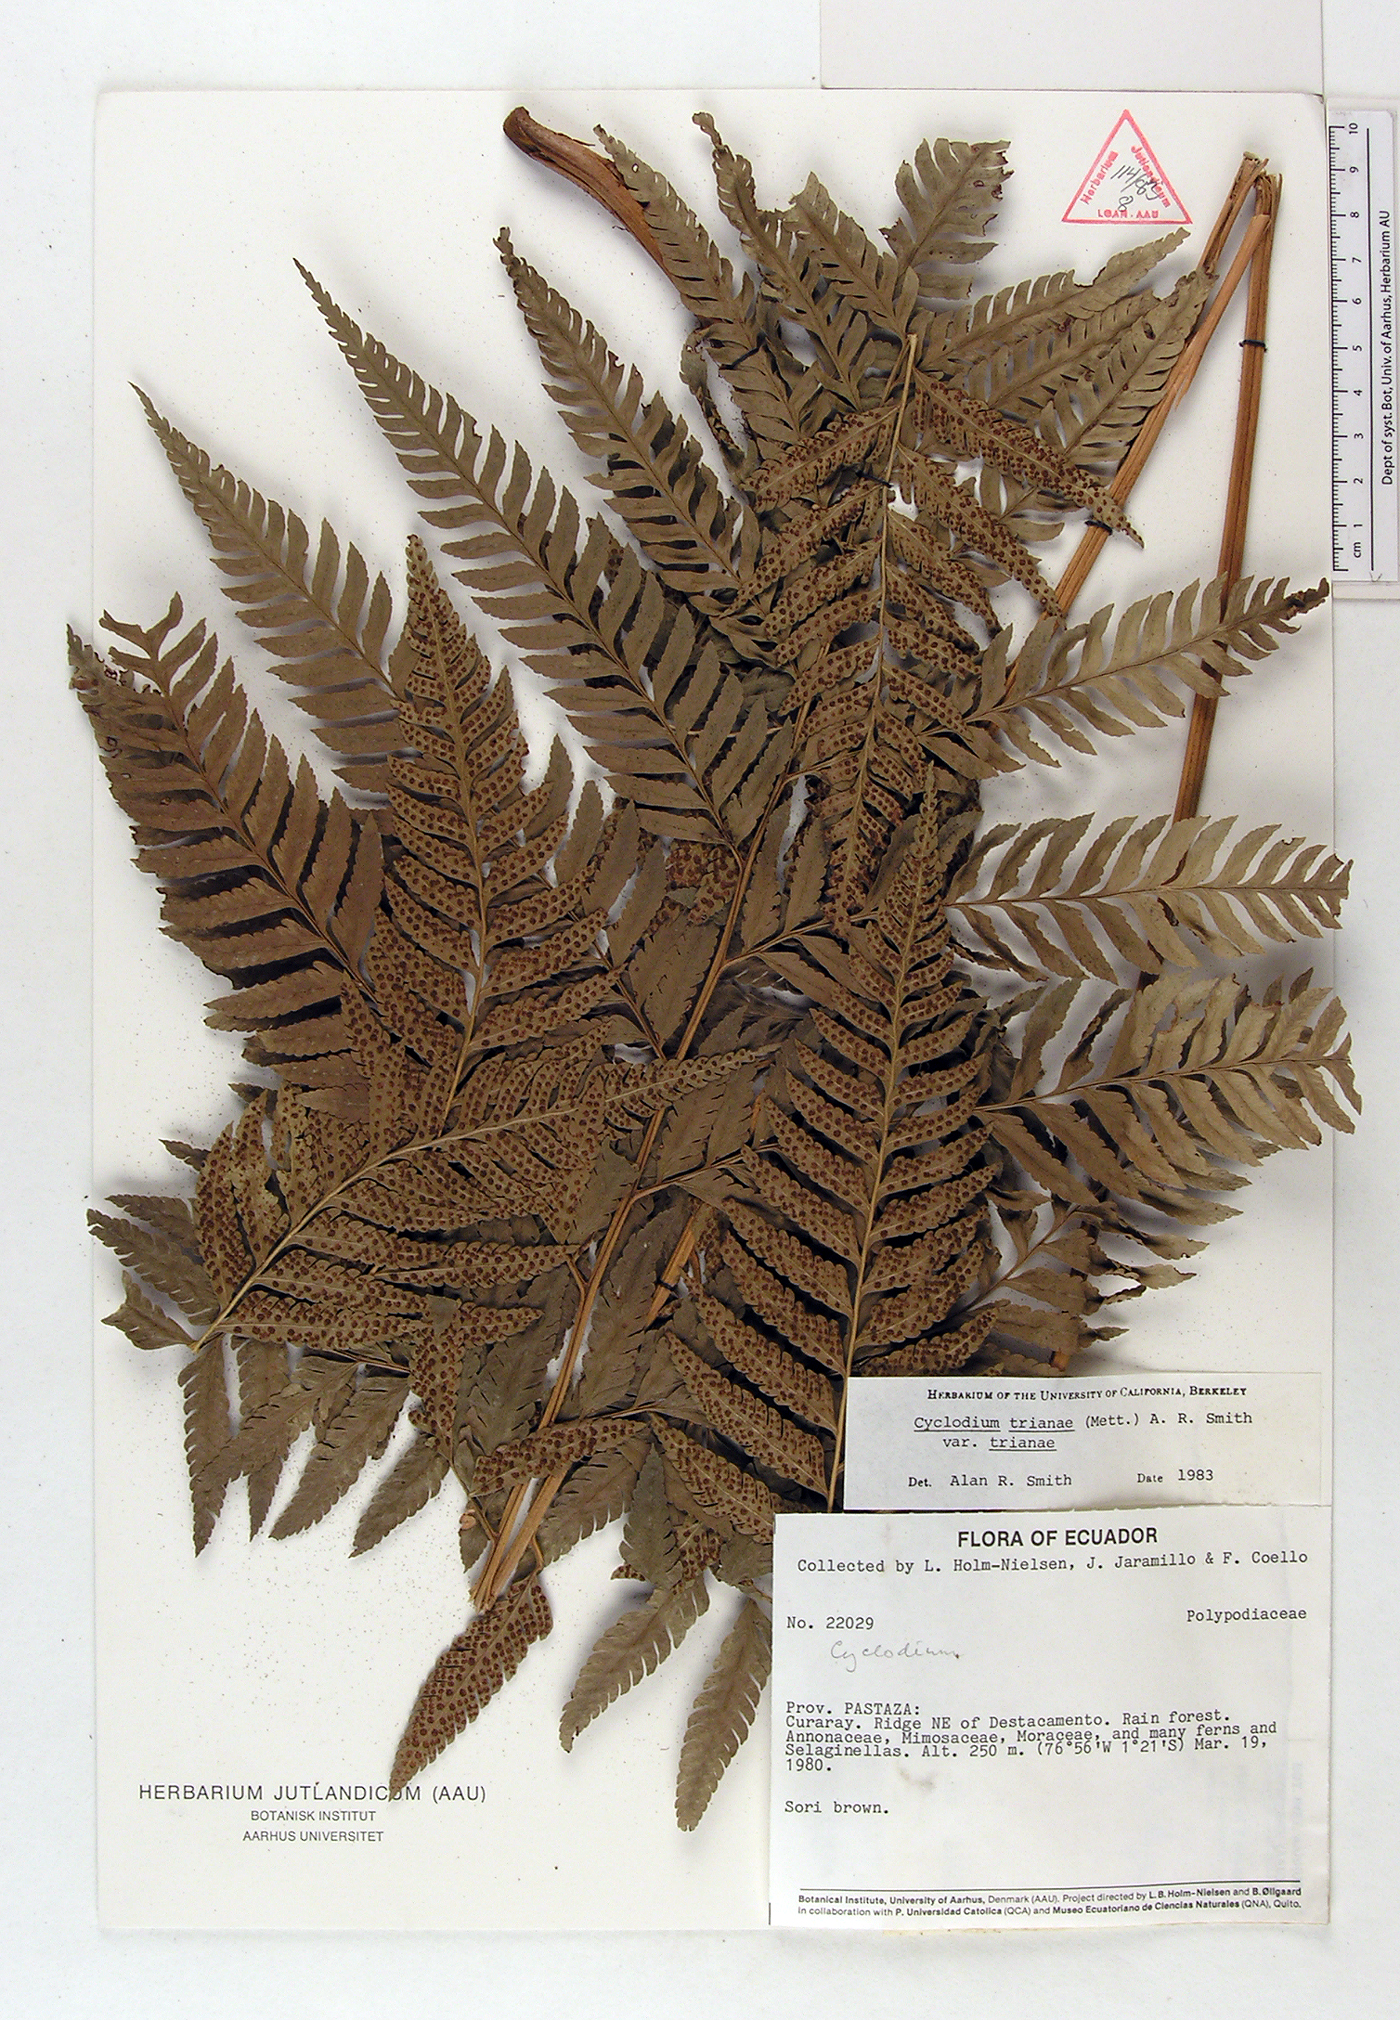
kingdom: Plantae
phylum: Tracheophyta
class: Polypodiopsida
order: Polypodiales
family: Dryopteridaceae
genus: Cyclodium
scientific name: Cyclodium trianae
